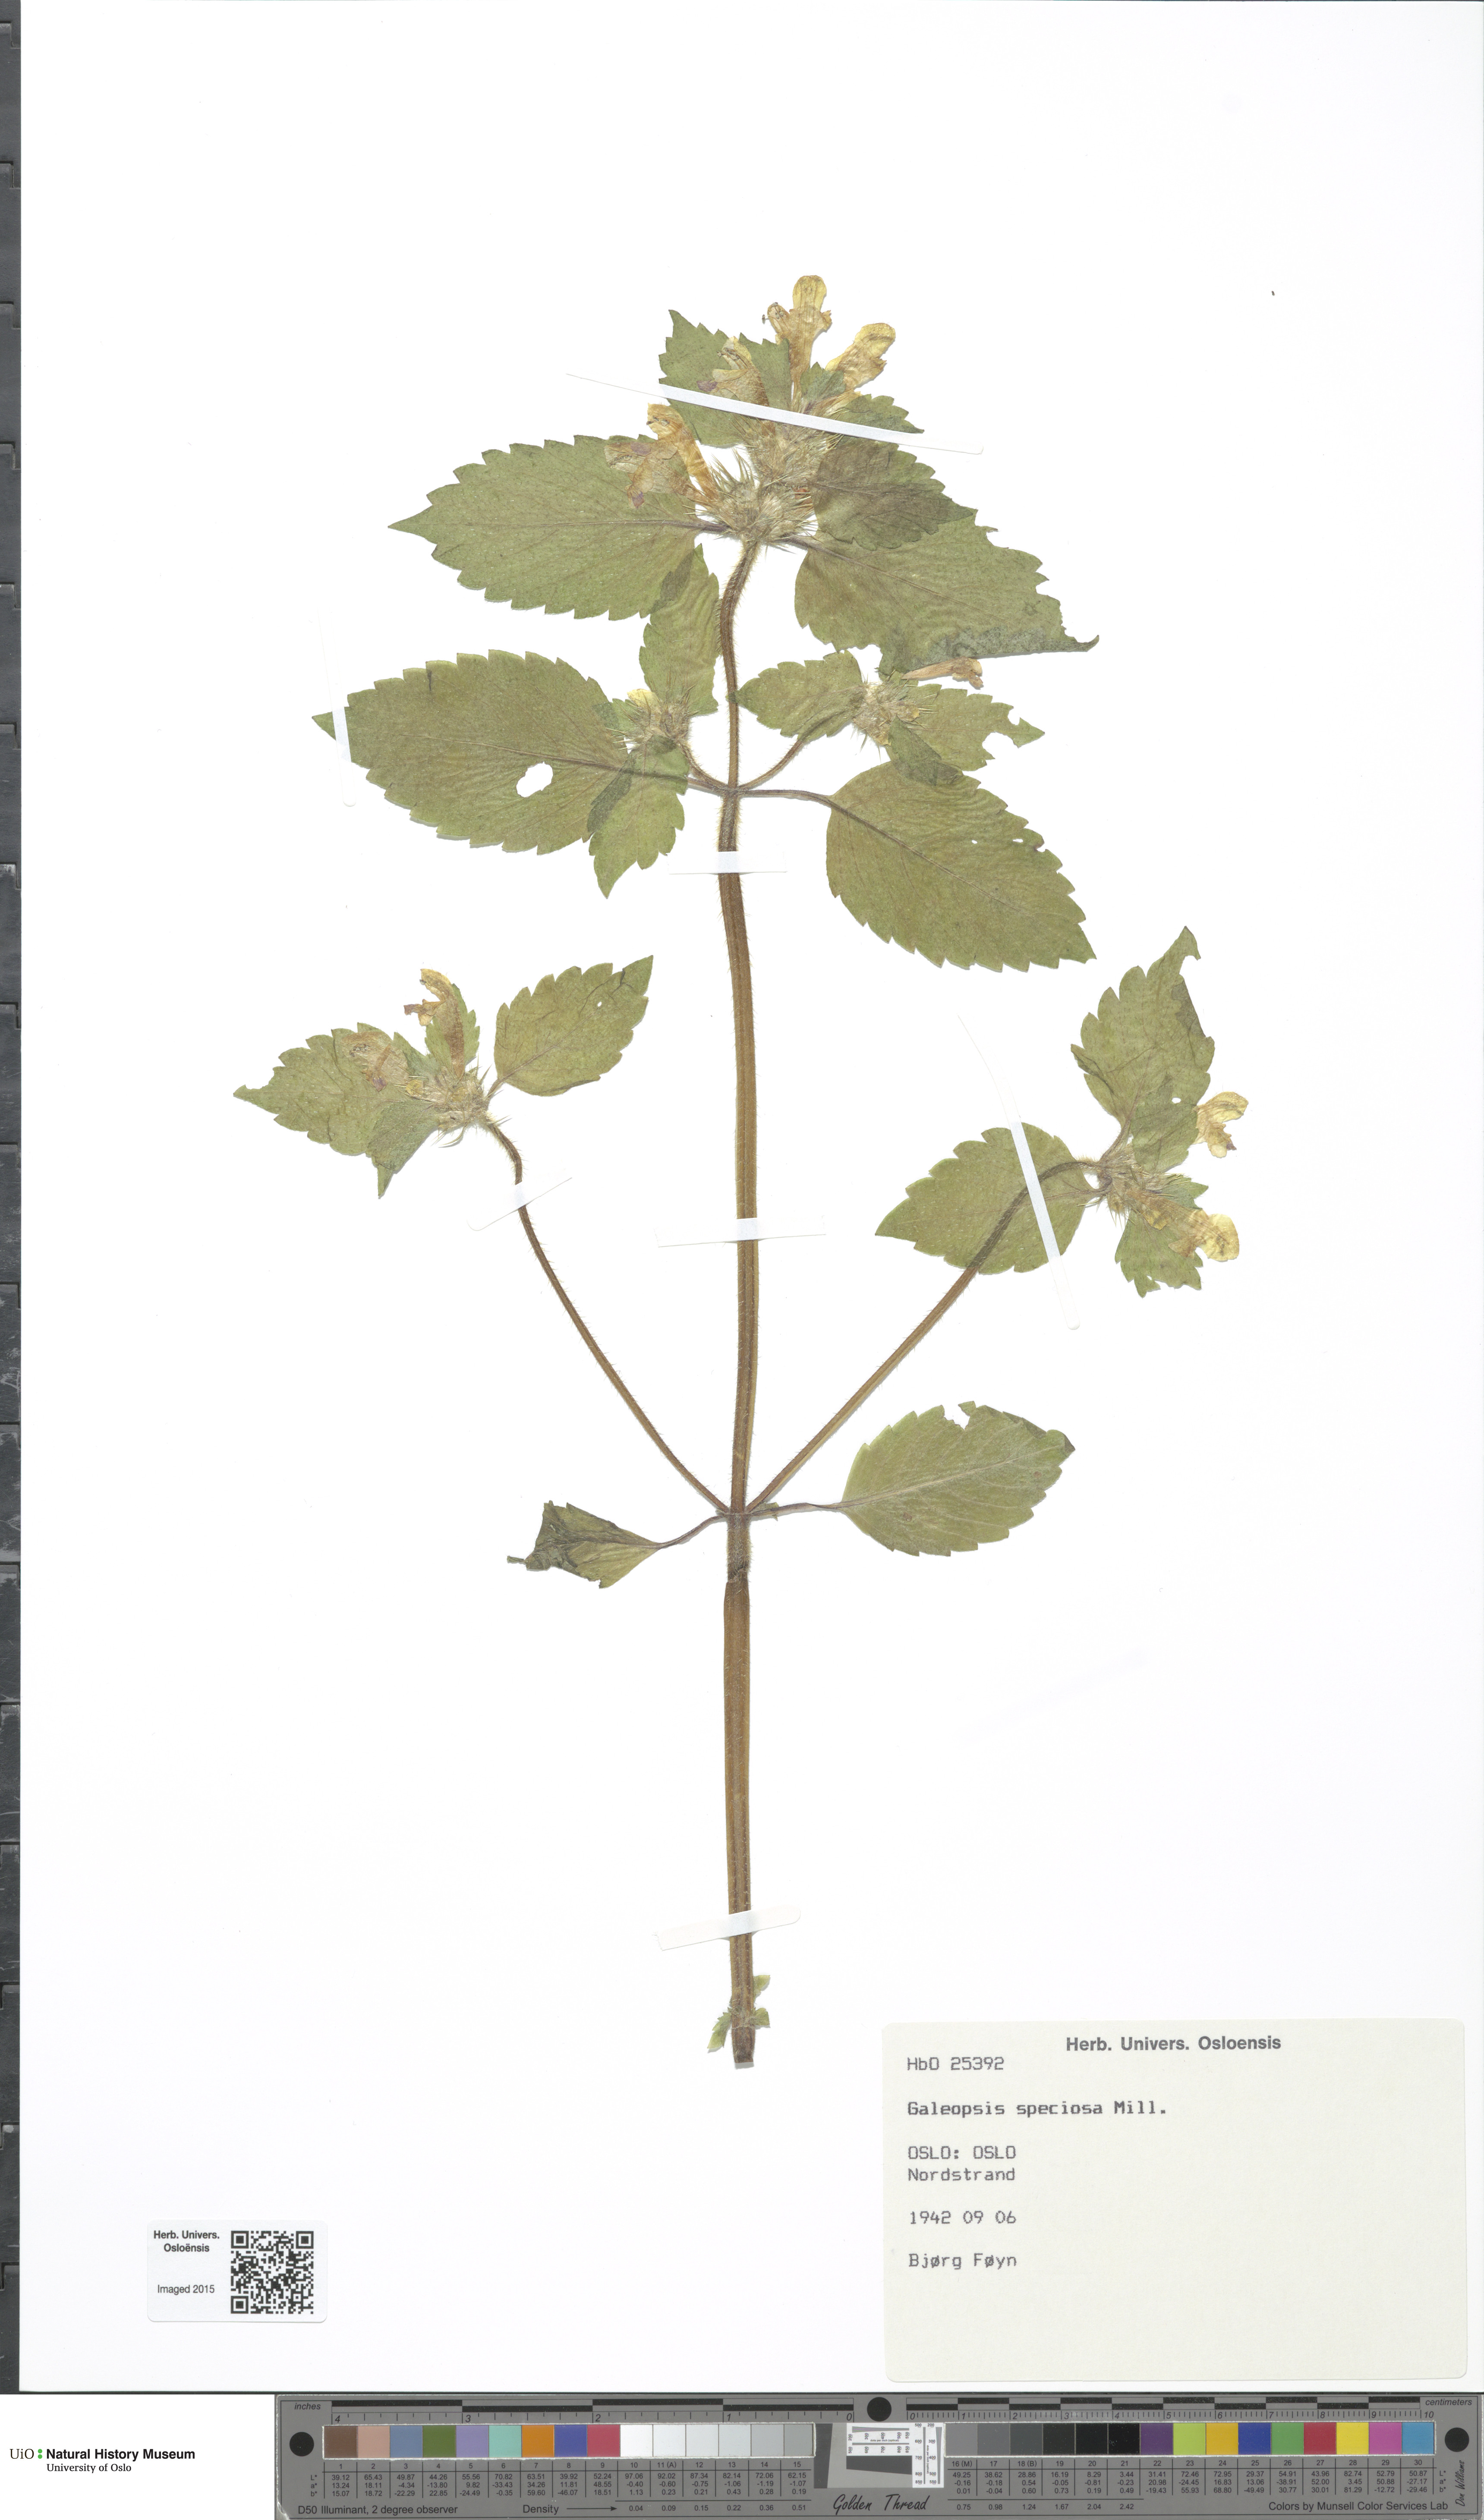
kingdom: Plantae
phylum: Tracheophyta
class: Magnoliopsida
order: Lamiales
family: Lamiaceae
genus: Galeopsis
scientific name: Galeopsis speciosa
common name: Large-flowered hemp-nettle
